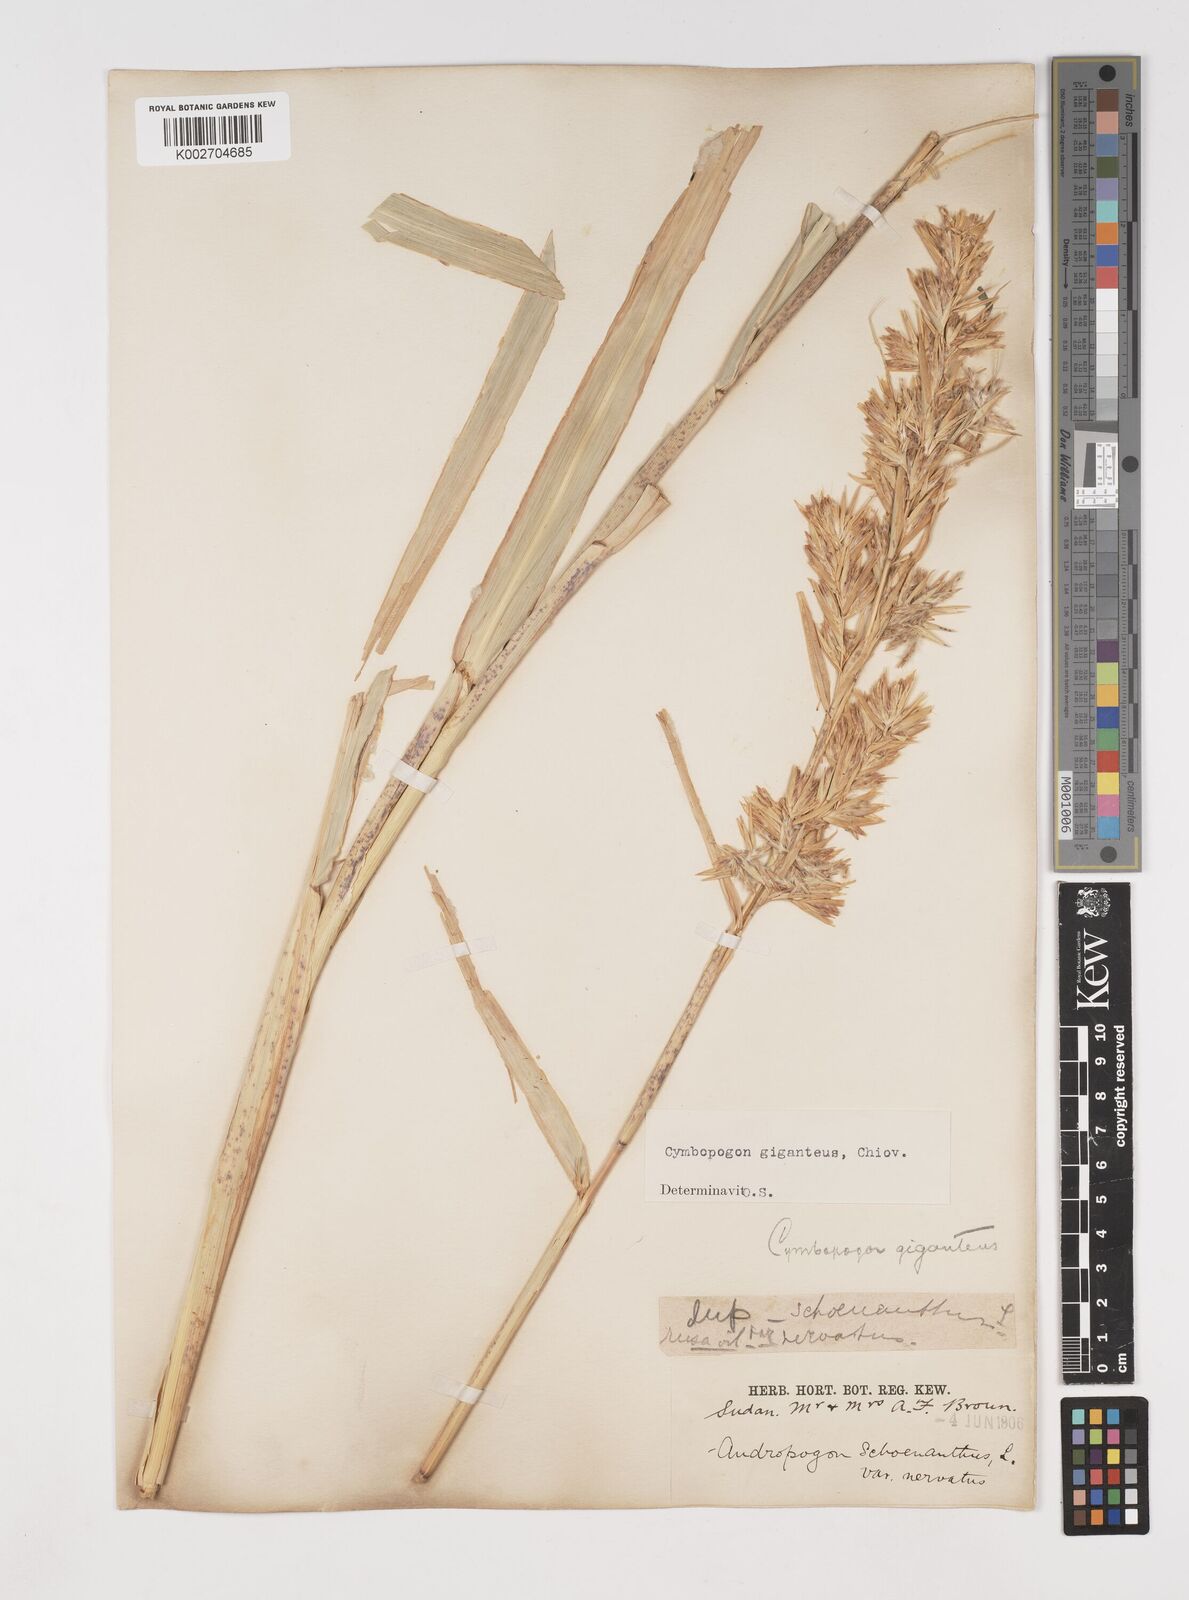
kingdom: Plantae
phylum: Tracheophyta
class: Liliopsida
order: Poales
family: Poaceae
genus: Cymbopogon
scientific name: Cymbopogon giganteus
